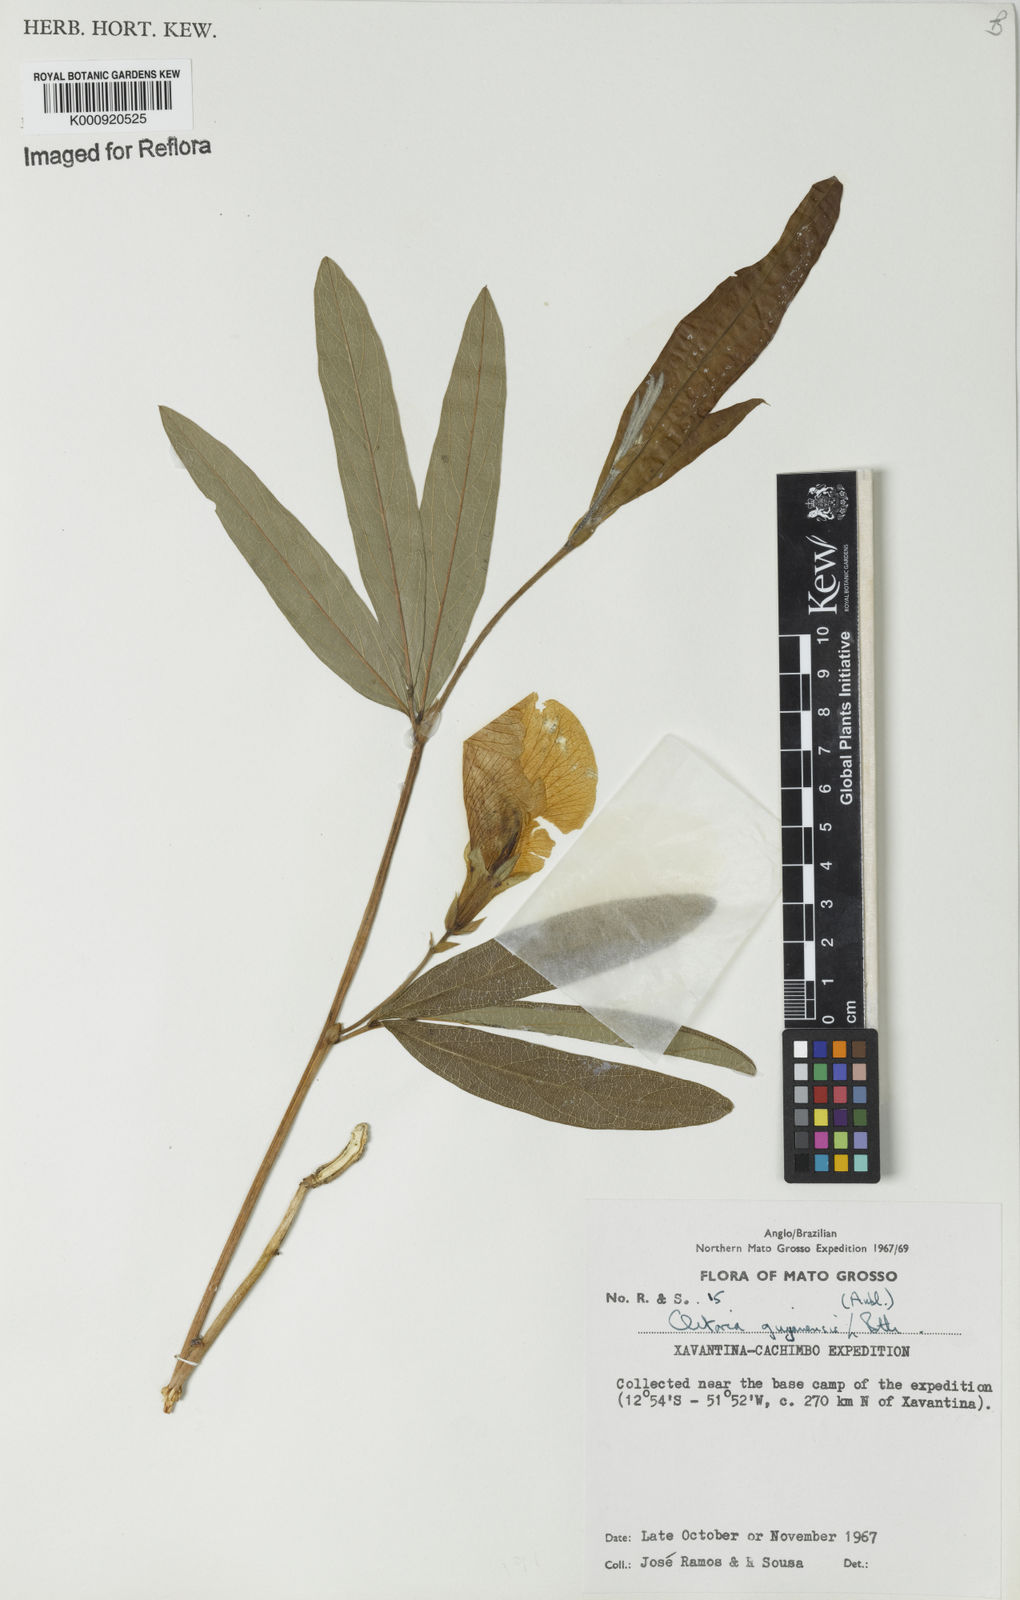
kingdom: Plantae
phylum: Tracheophyta
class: Magnoliopsida
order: Fabales
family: Fabaceae
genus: Clitoria
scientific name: Clitoria guianensis
